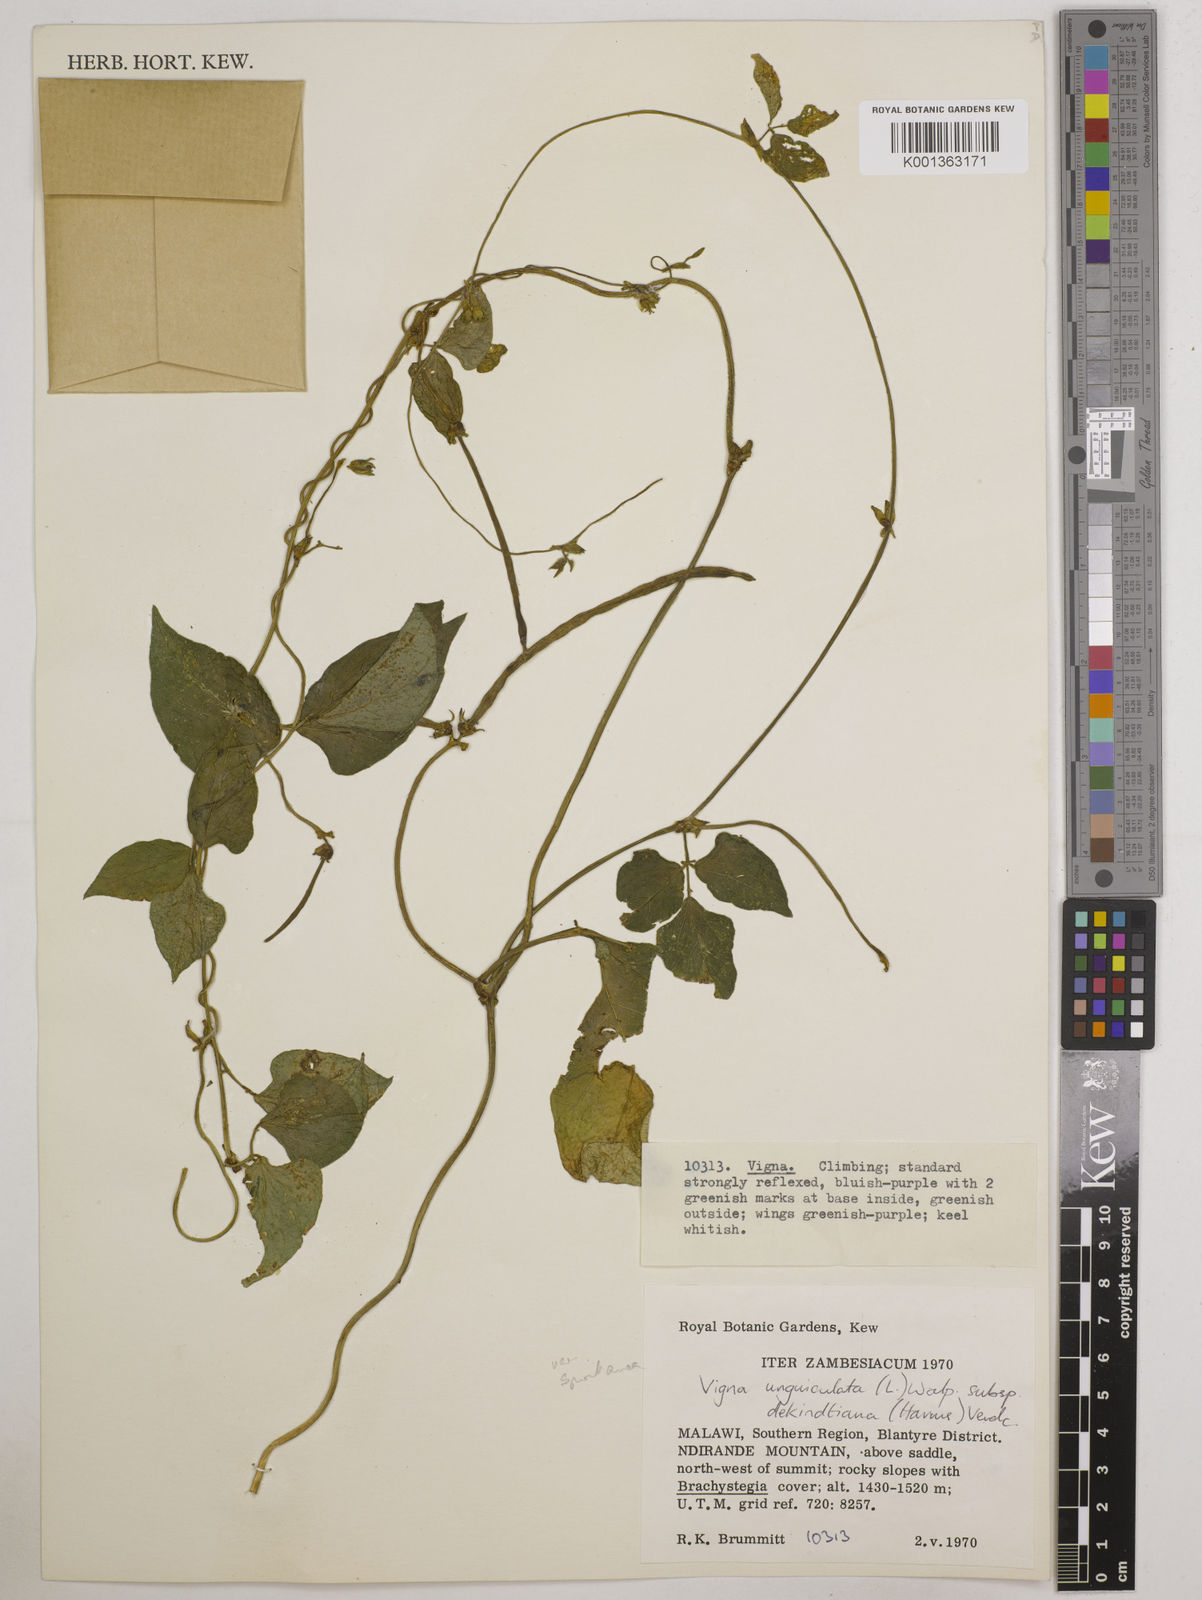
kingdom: Plantae
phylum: Tracheophyta
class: Magnoliopsida
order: Fabales
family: Fabaceae
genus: Vigna
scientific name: Vigna unguiculata
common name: Cowpea
